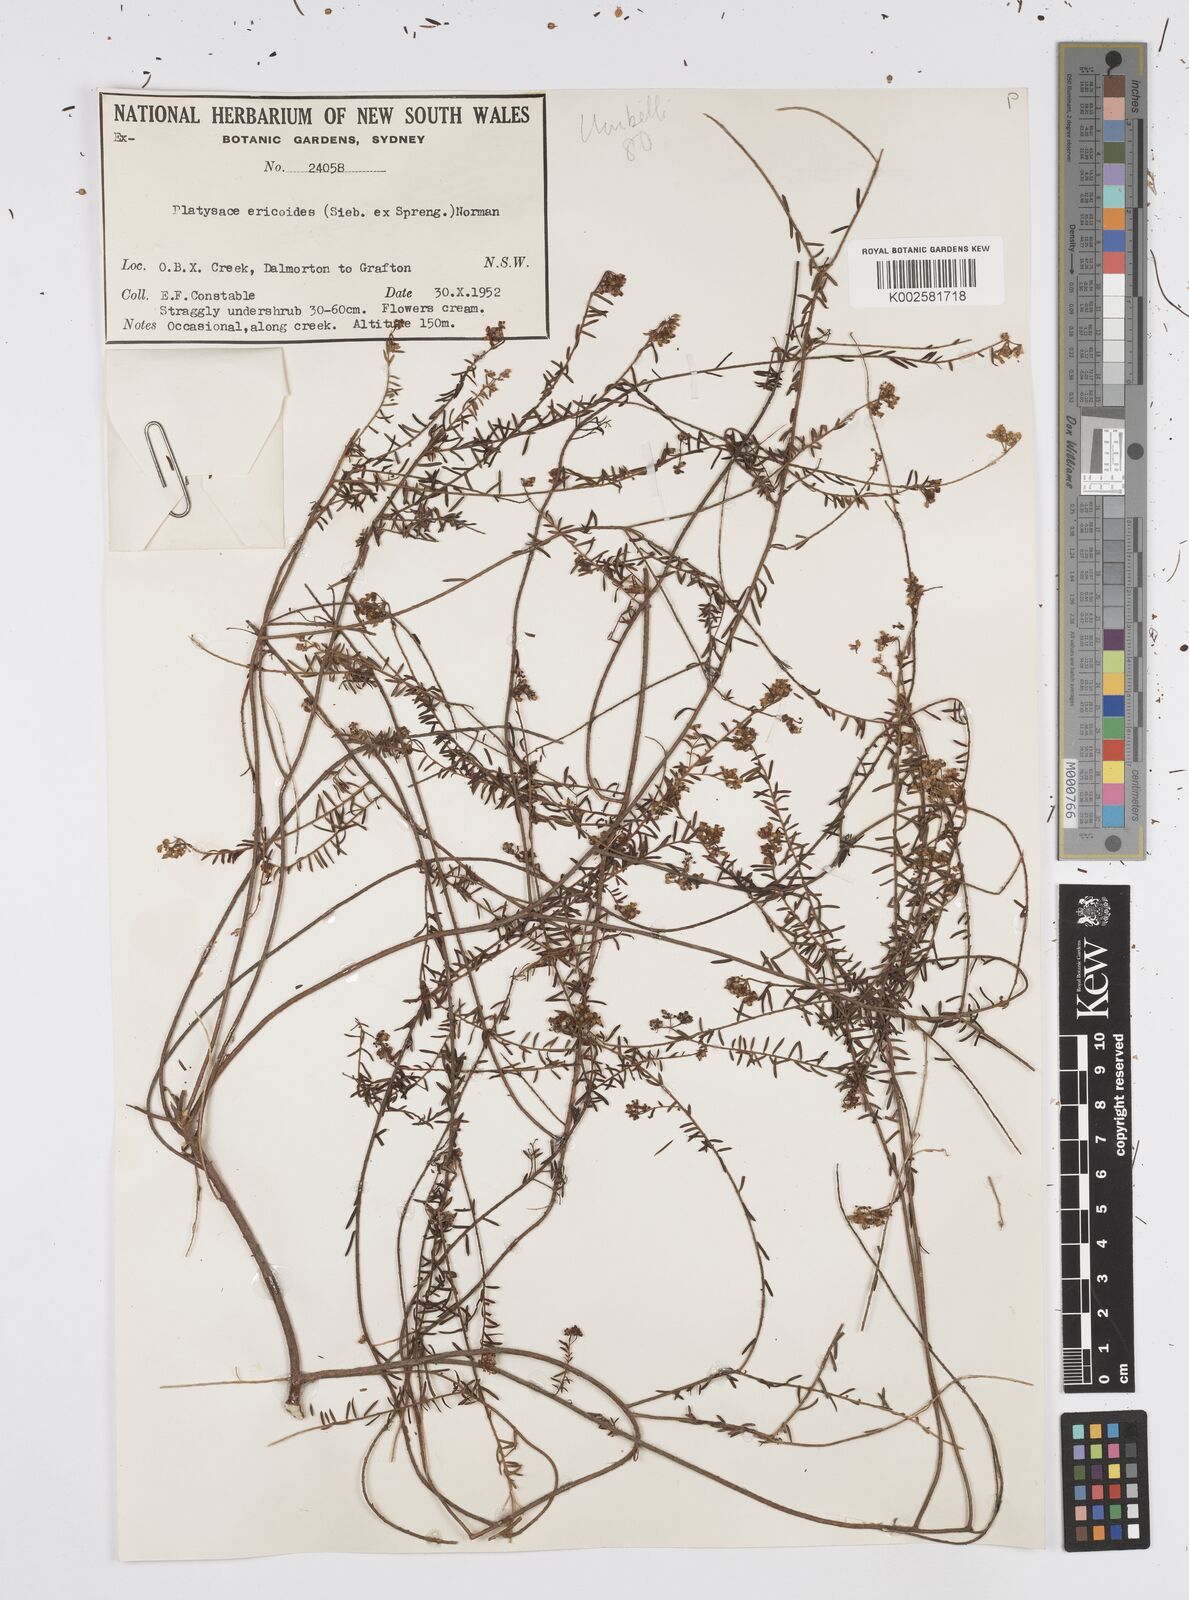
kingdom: Plantae
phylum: Tracheophyta
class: Magnoliopsida
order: Apiales
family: Apiaceae
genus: Platysace
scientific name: Platysace ericoides
